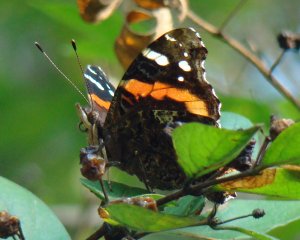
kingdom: Animalia
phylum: Arthropoda
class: Insecta
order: Lepidoptera
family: Nymphalidae
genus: Vanessa
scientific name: Vanessa atalanta
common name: Red Admiral
